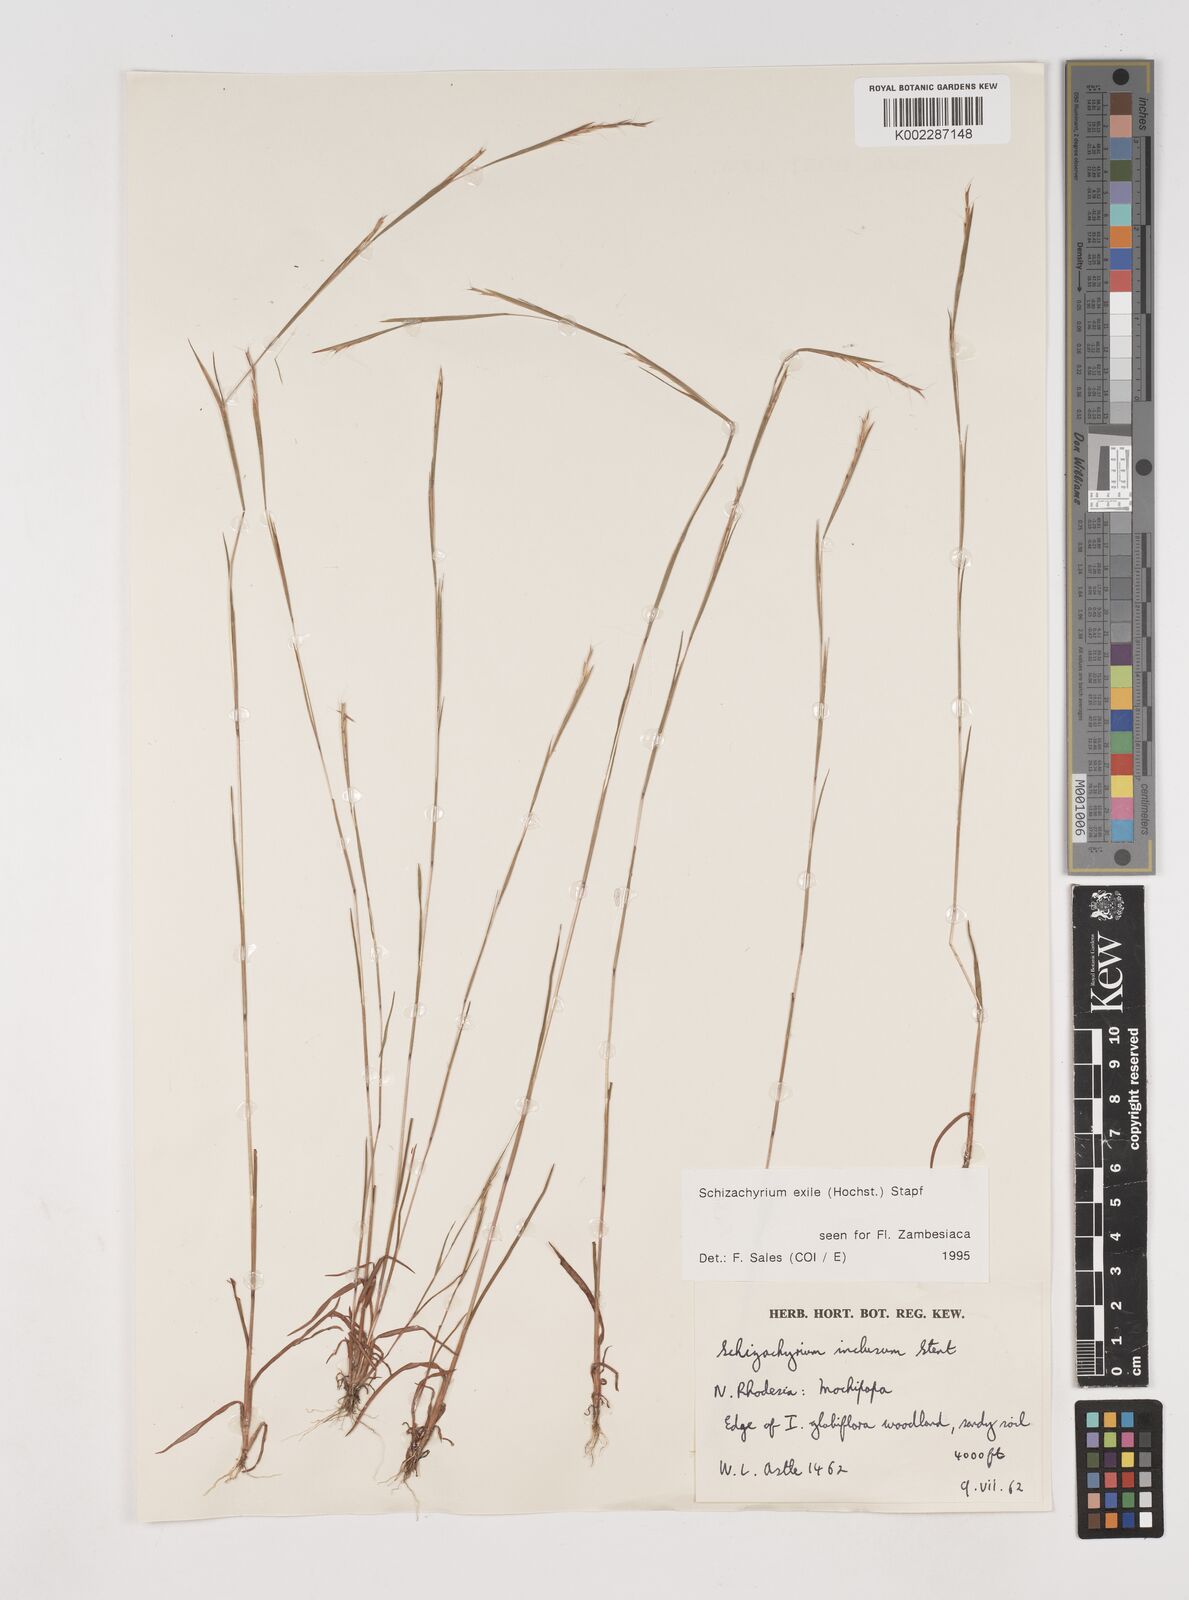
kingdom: Plantae
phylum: Tracheophyta
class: Liliopsida
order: Poales
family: Poaceae
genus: Schizachyrium
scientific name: Schizachyrium exile
